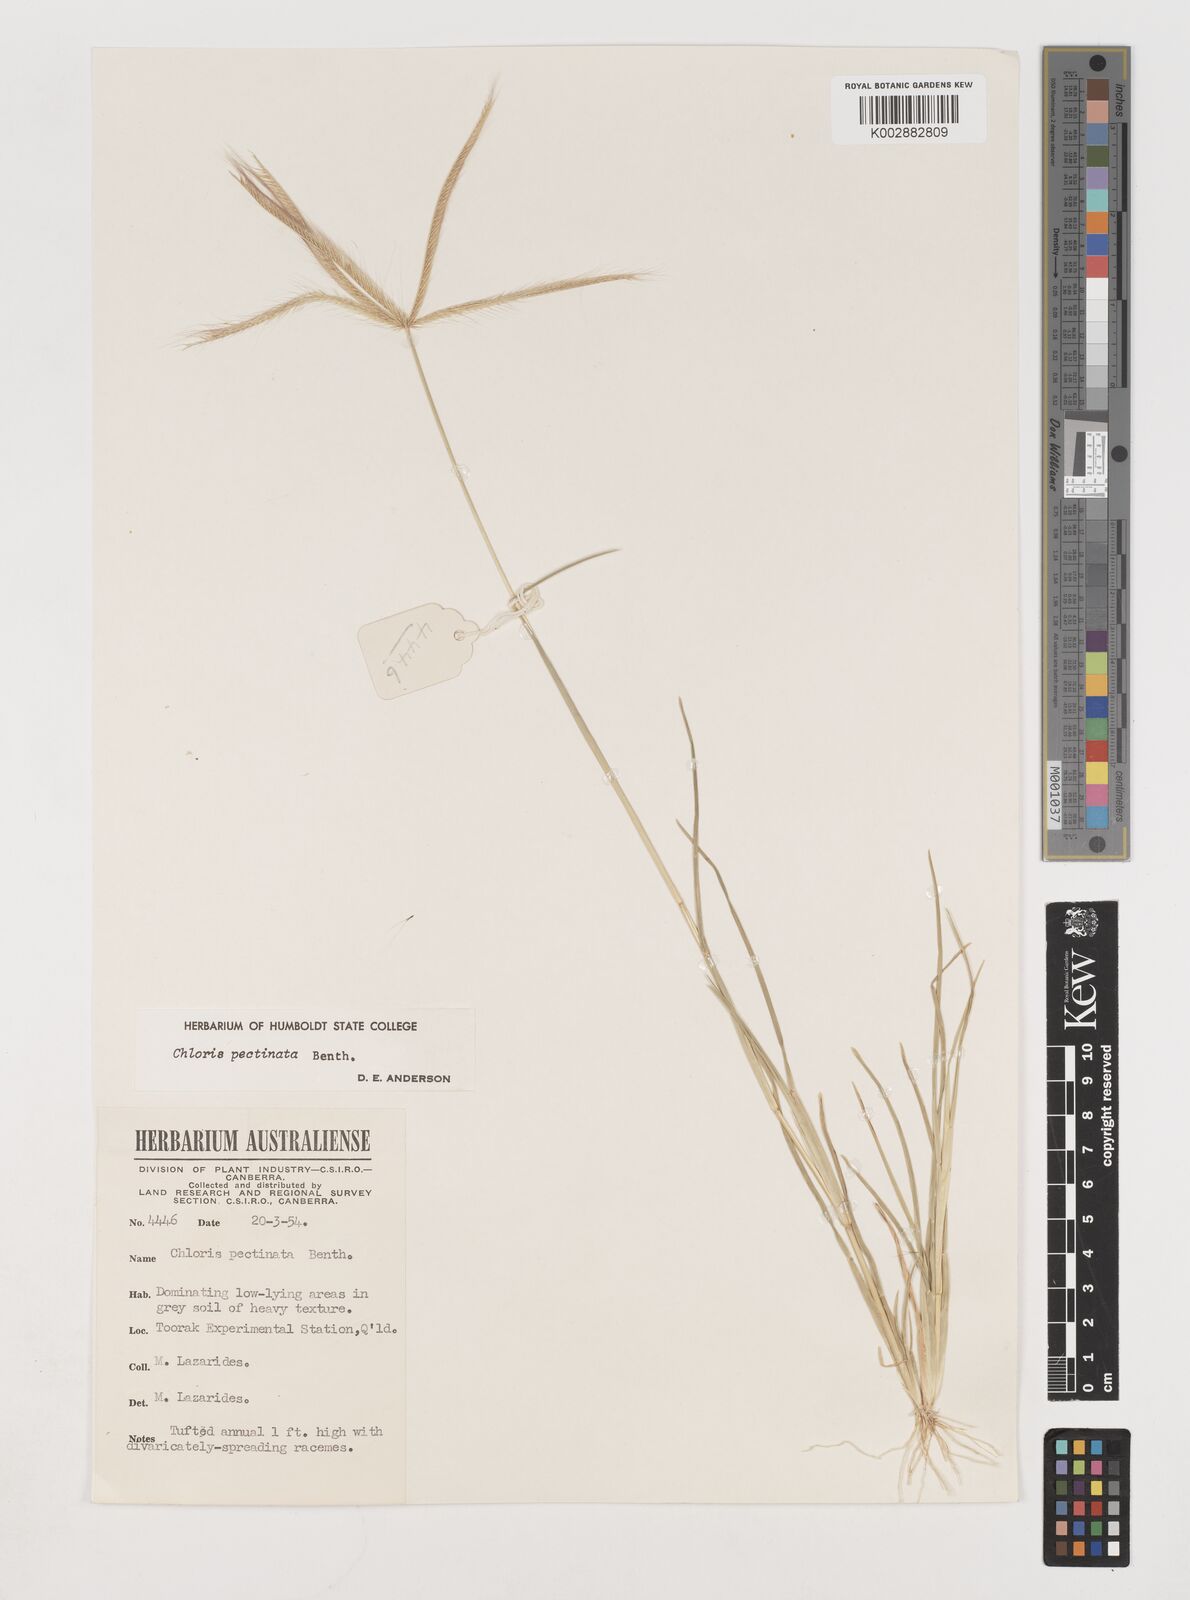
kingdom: Plantae
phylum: Tracheophyta
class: Liliopsida
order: Poales
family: Poaceae
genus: Chloris
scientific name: Chloris pectinata
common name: Comb windmill grass
